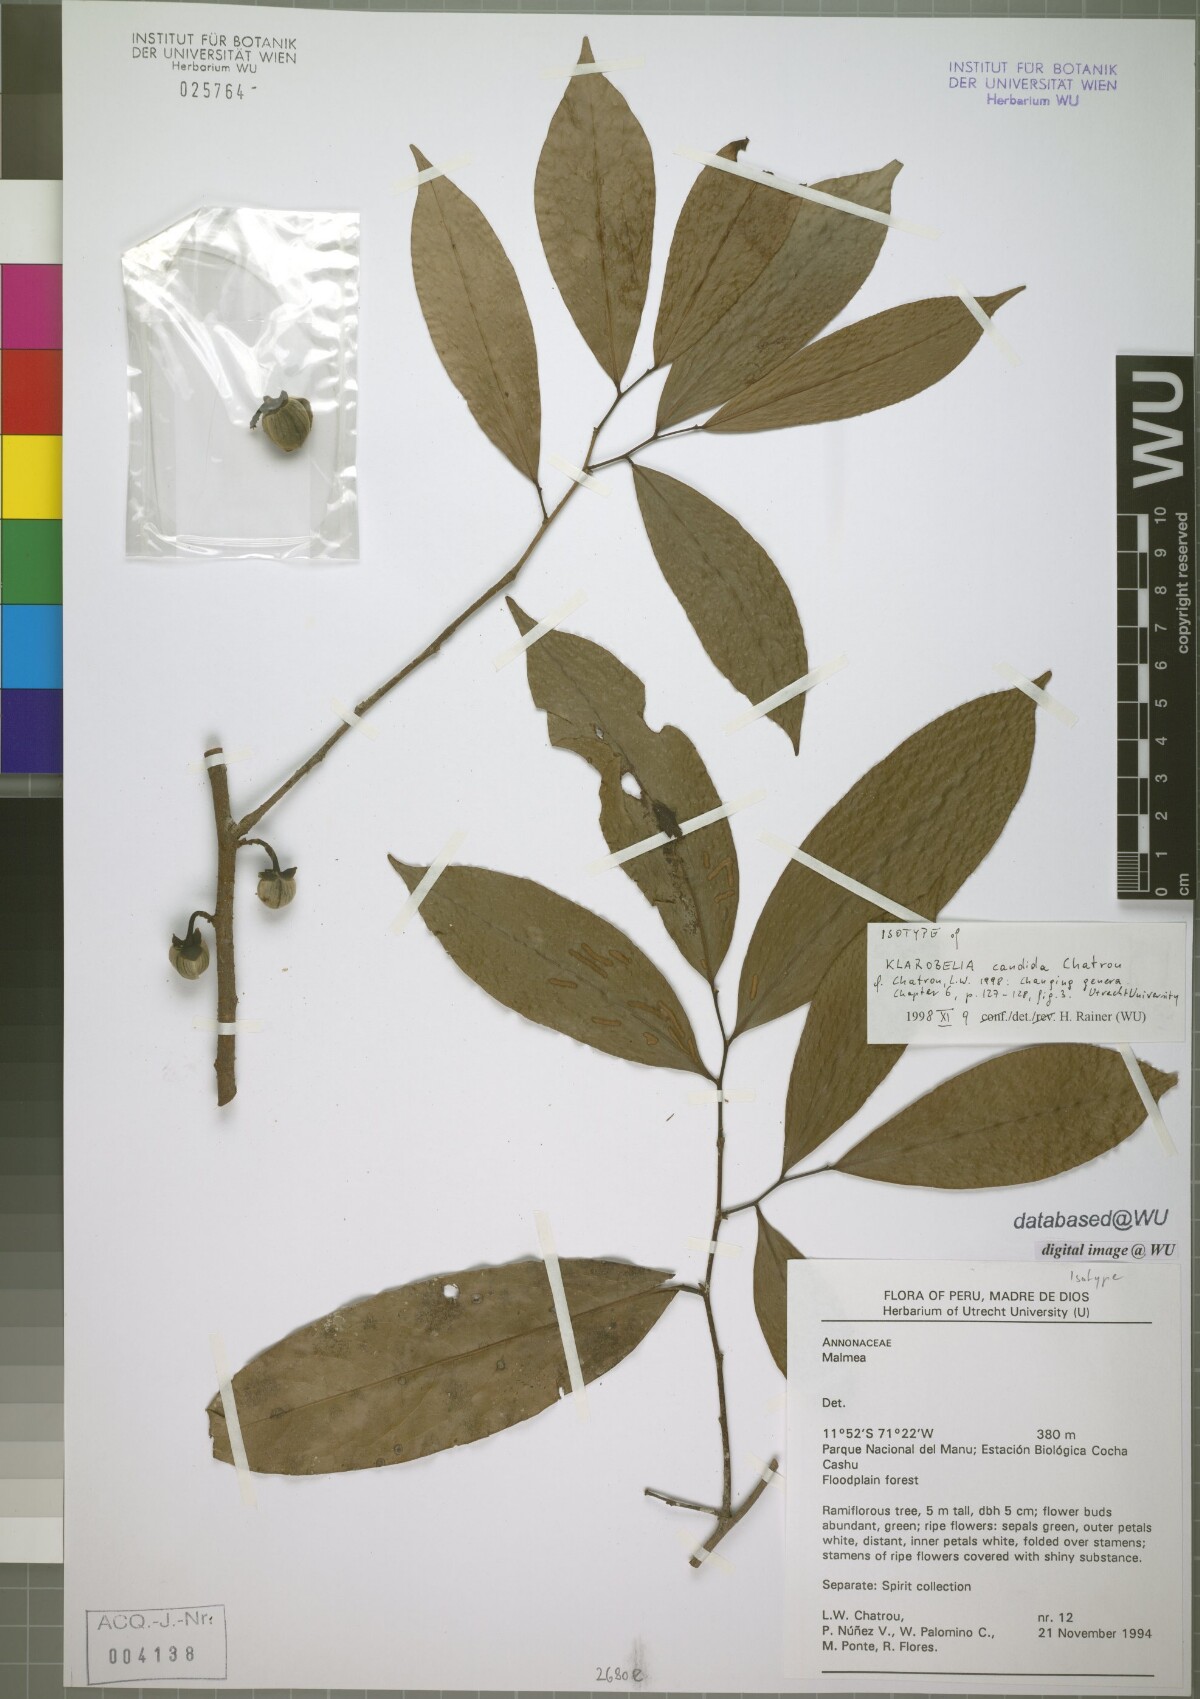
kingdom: Plantae
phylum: Tracheophyta
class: Magnoliopsida
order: Magnoliales
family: Annonaceae
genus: Klarobelia
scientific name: Klarobelia candida
